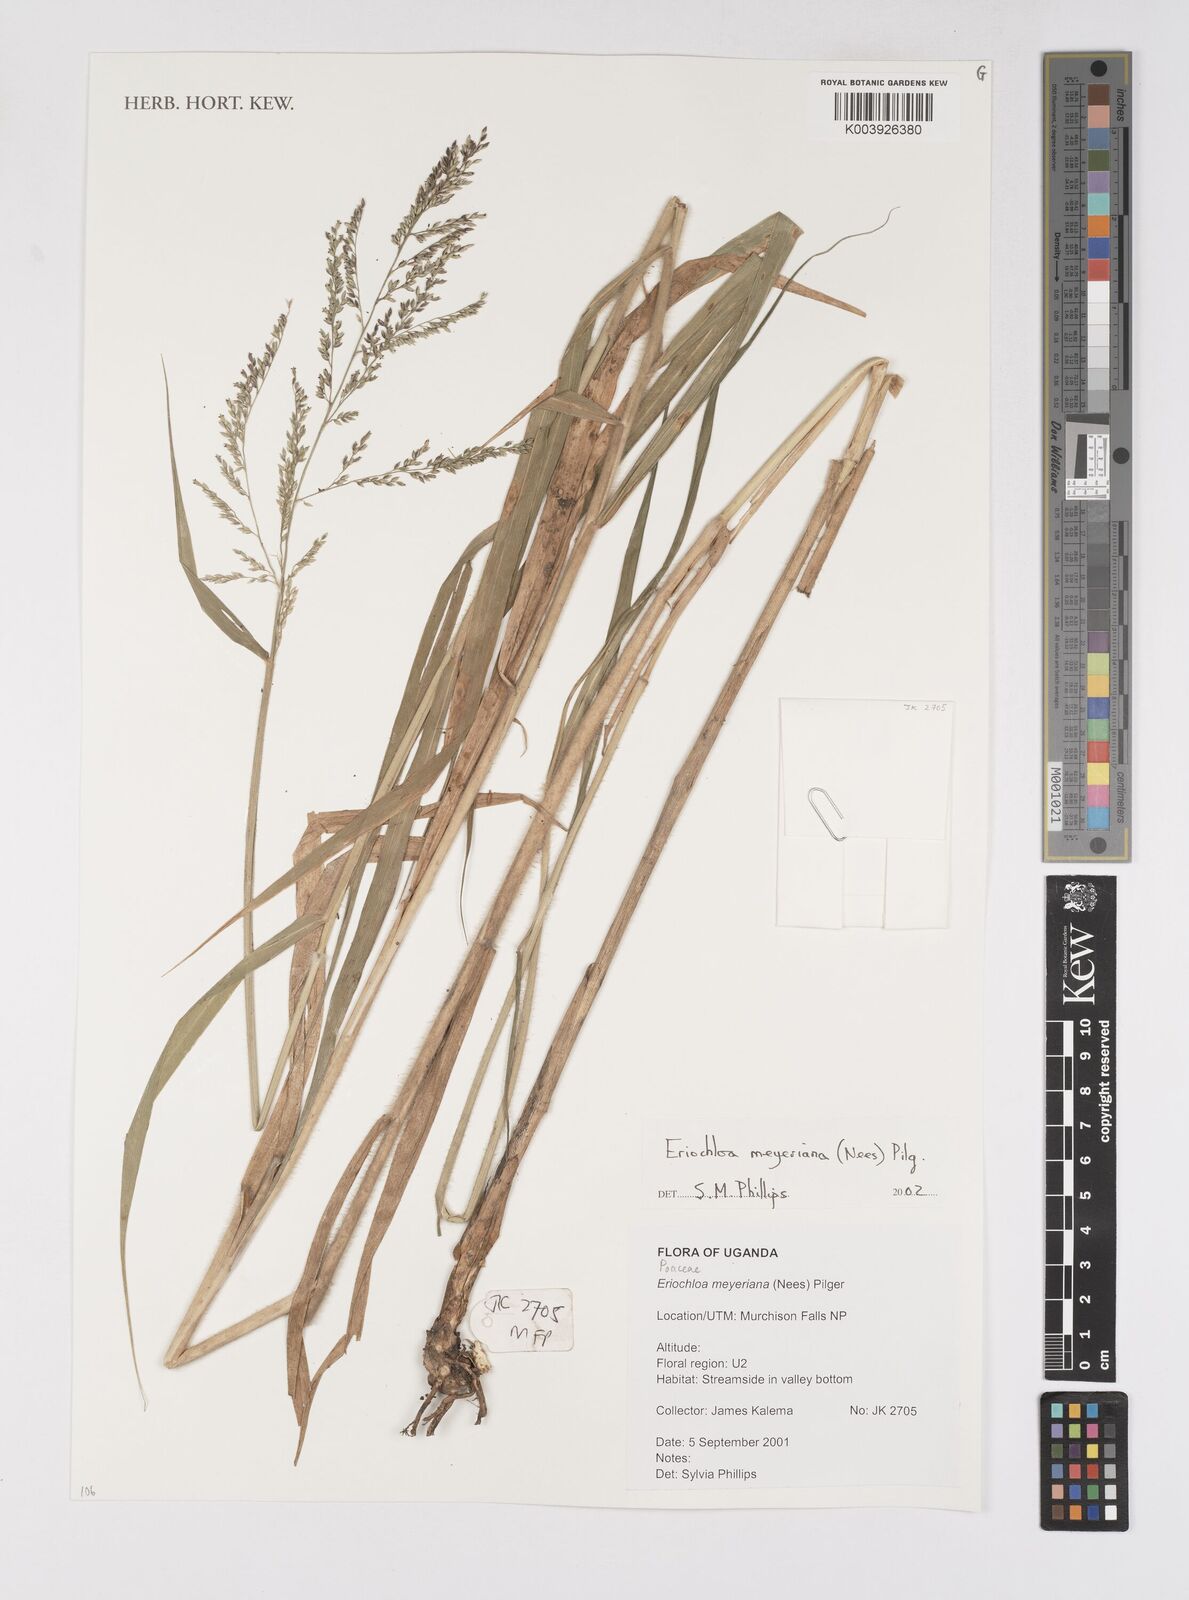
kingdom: Plantae
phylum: Tracheophyta
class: Liliopsida
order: Poales
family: Poaceae
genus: Eriochloa
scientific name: Eriochloa meyeriana
